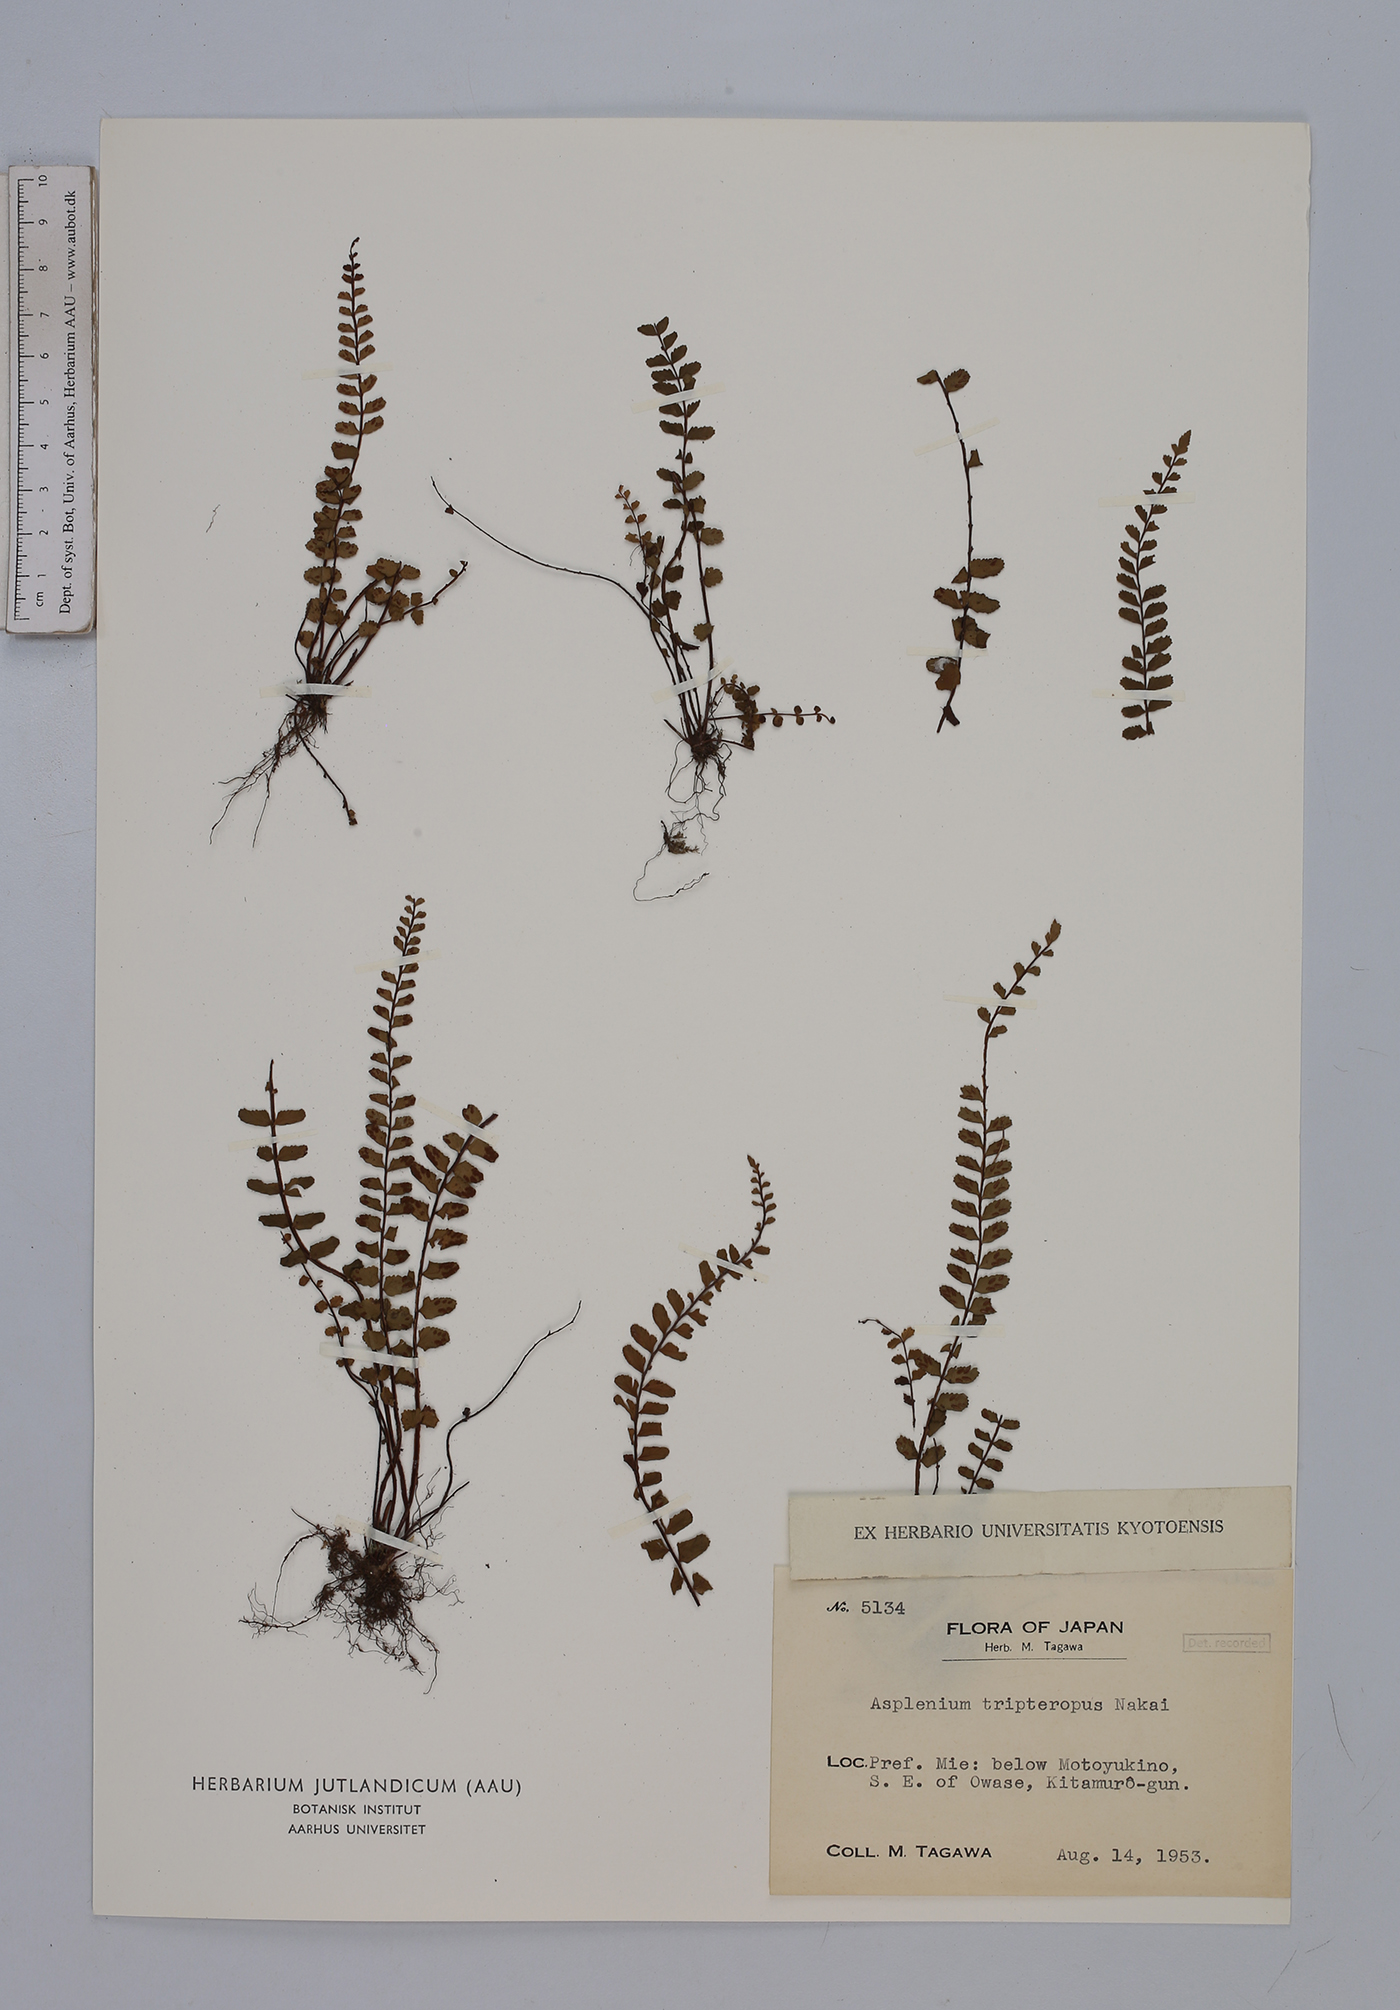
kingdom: Plantae
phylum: Tracheophyta
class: Polypodiopsida
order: Polypodiales
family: Aspleniaceae
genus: Asplenium
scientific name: Asplenium tripteropus
